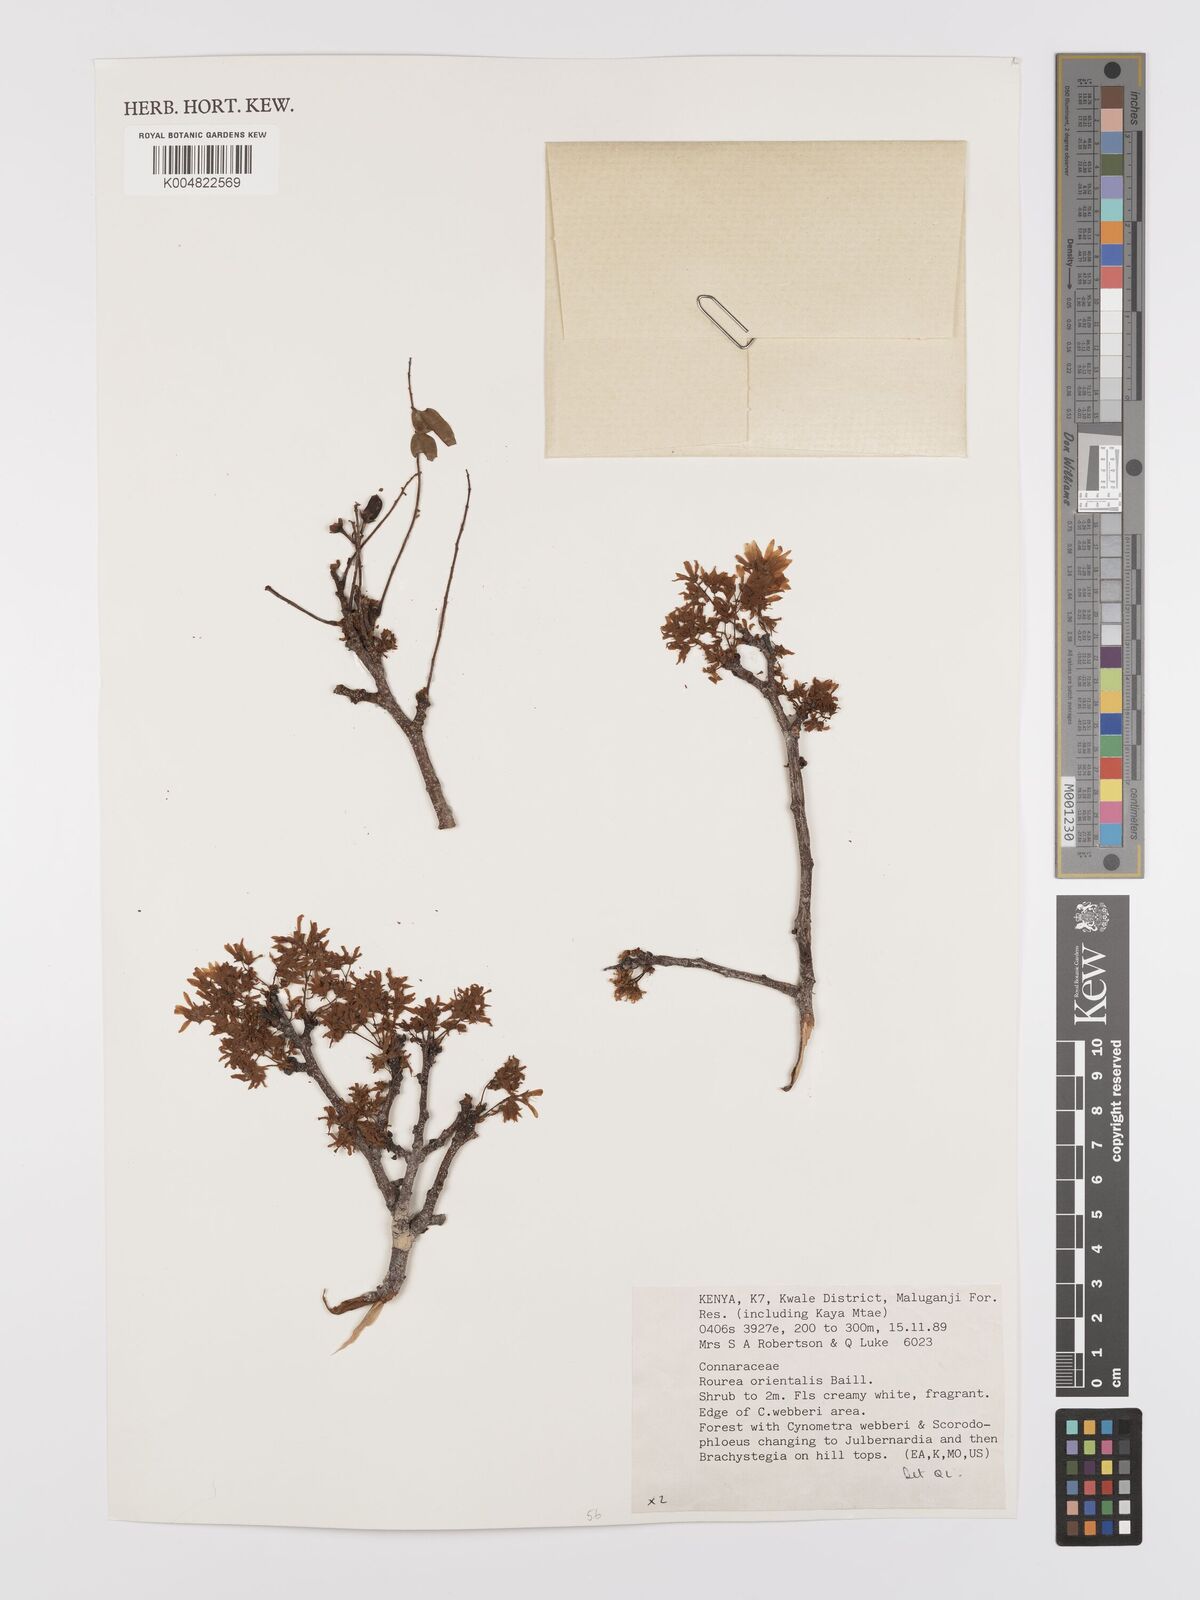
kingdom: Plantae
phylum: Tracheophyta
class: Magnoliopsida
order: Oxalidales
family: Connaraceae
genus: Rourea
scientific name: Rourea orientalis
